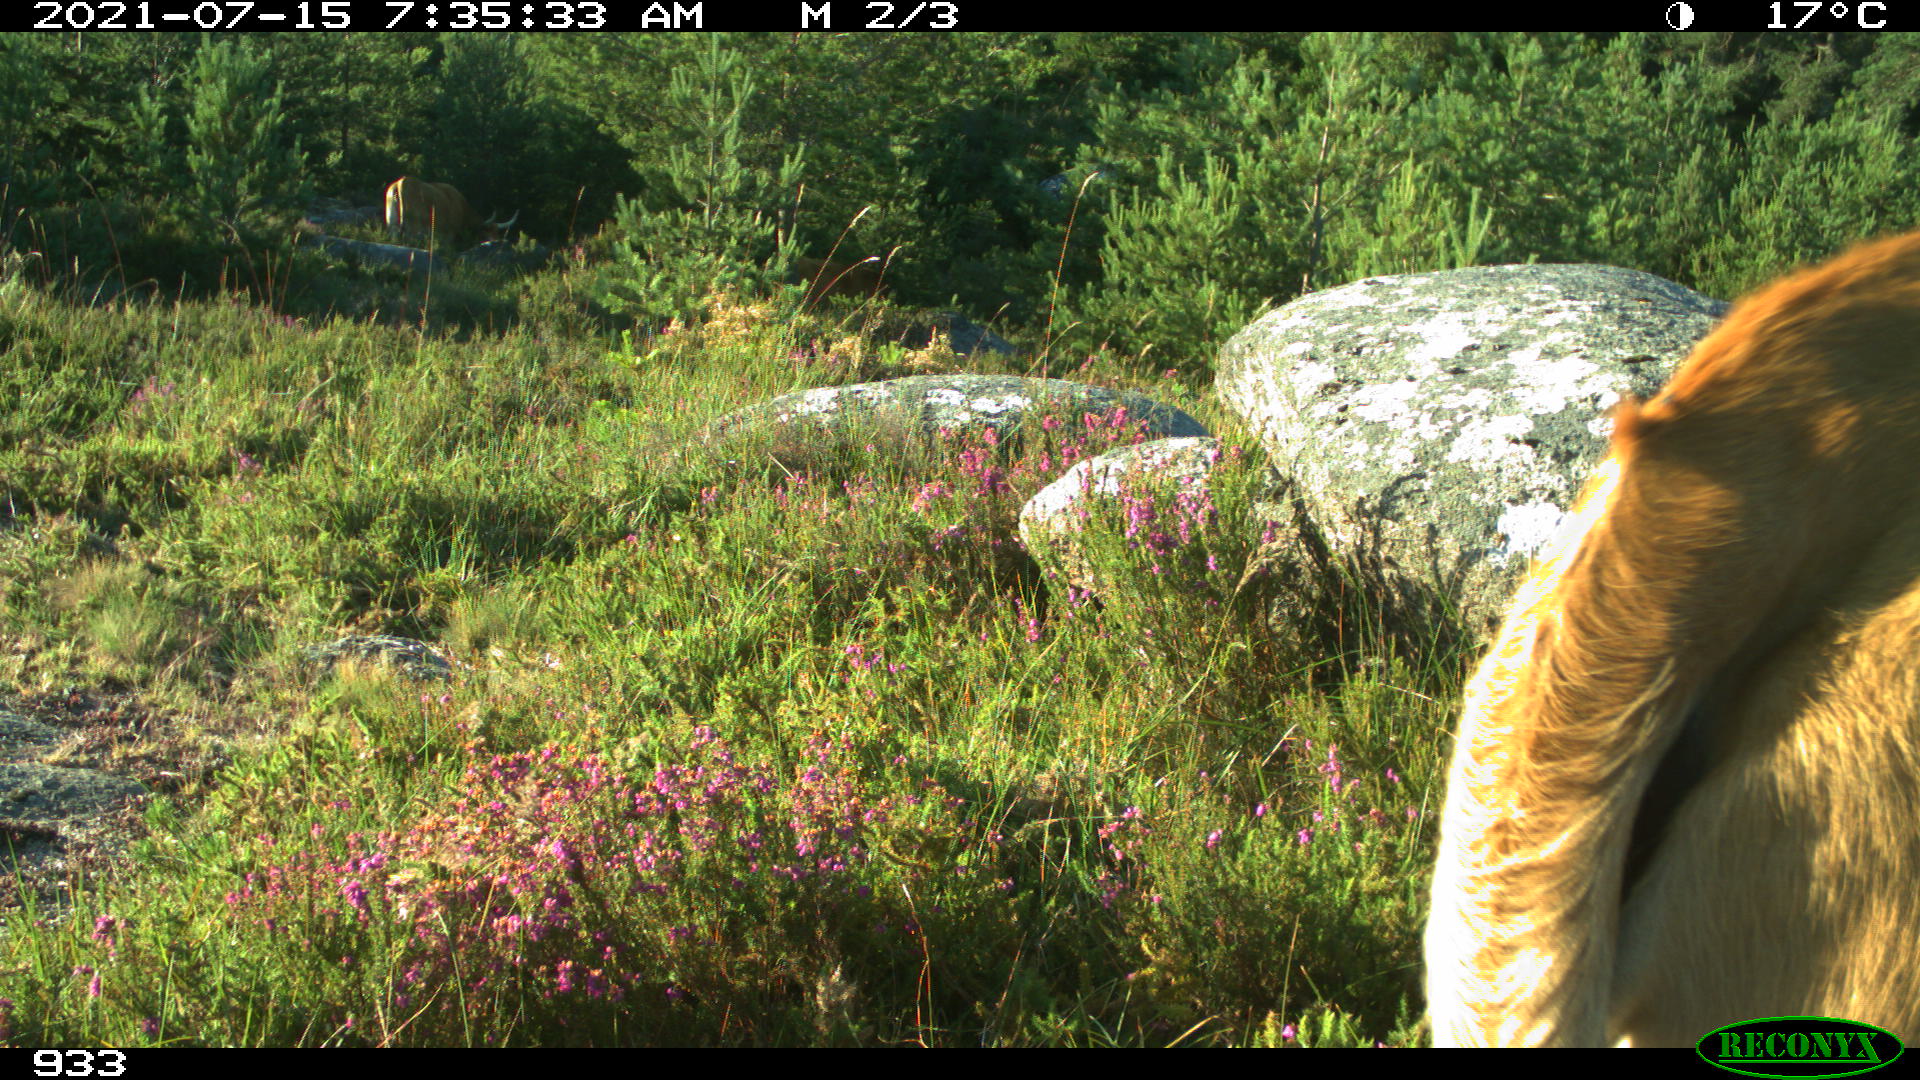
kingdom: Animalia
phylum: Chordata
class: Mammalia
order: Artiodactyla
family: Bovidae
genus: Bos
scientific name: Bos taurus
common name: Domesticated cattle
